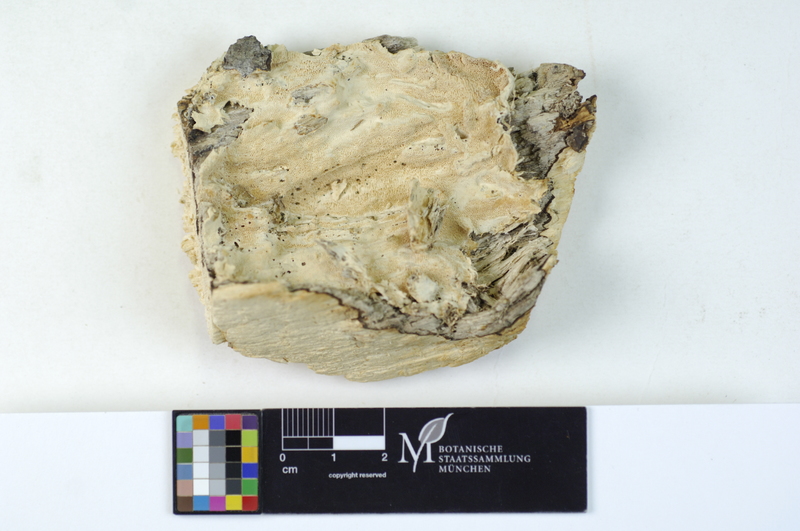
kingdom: Fungi
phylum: Basidiomycota
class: Agaricomycetes
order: Polyporales
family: Steccherinaceae
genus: Steccherinum
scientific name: Steccherinum fimbriatellum
